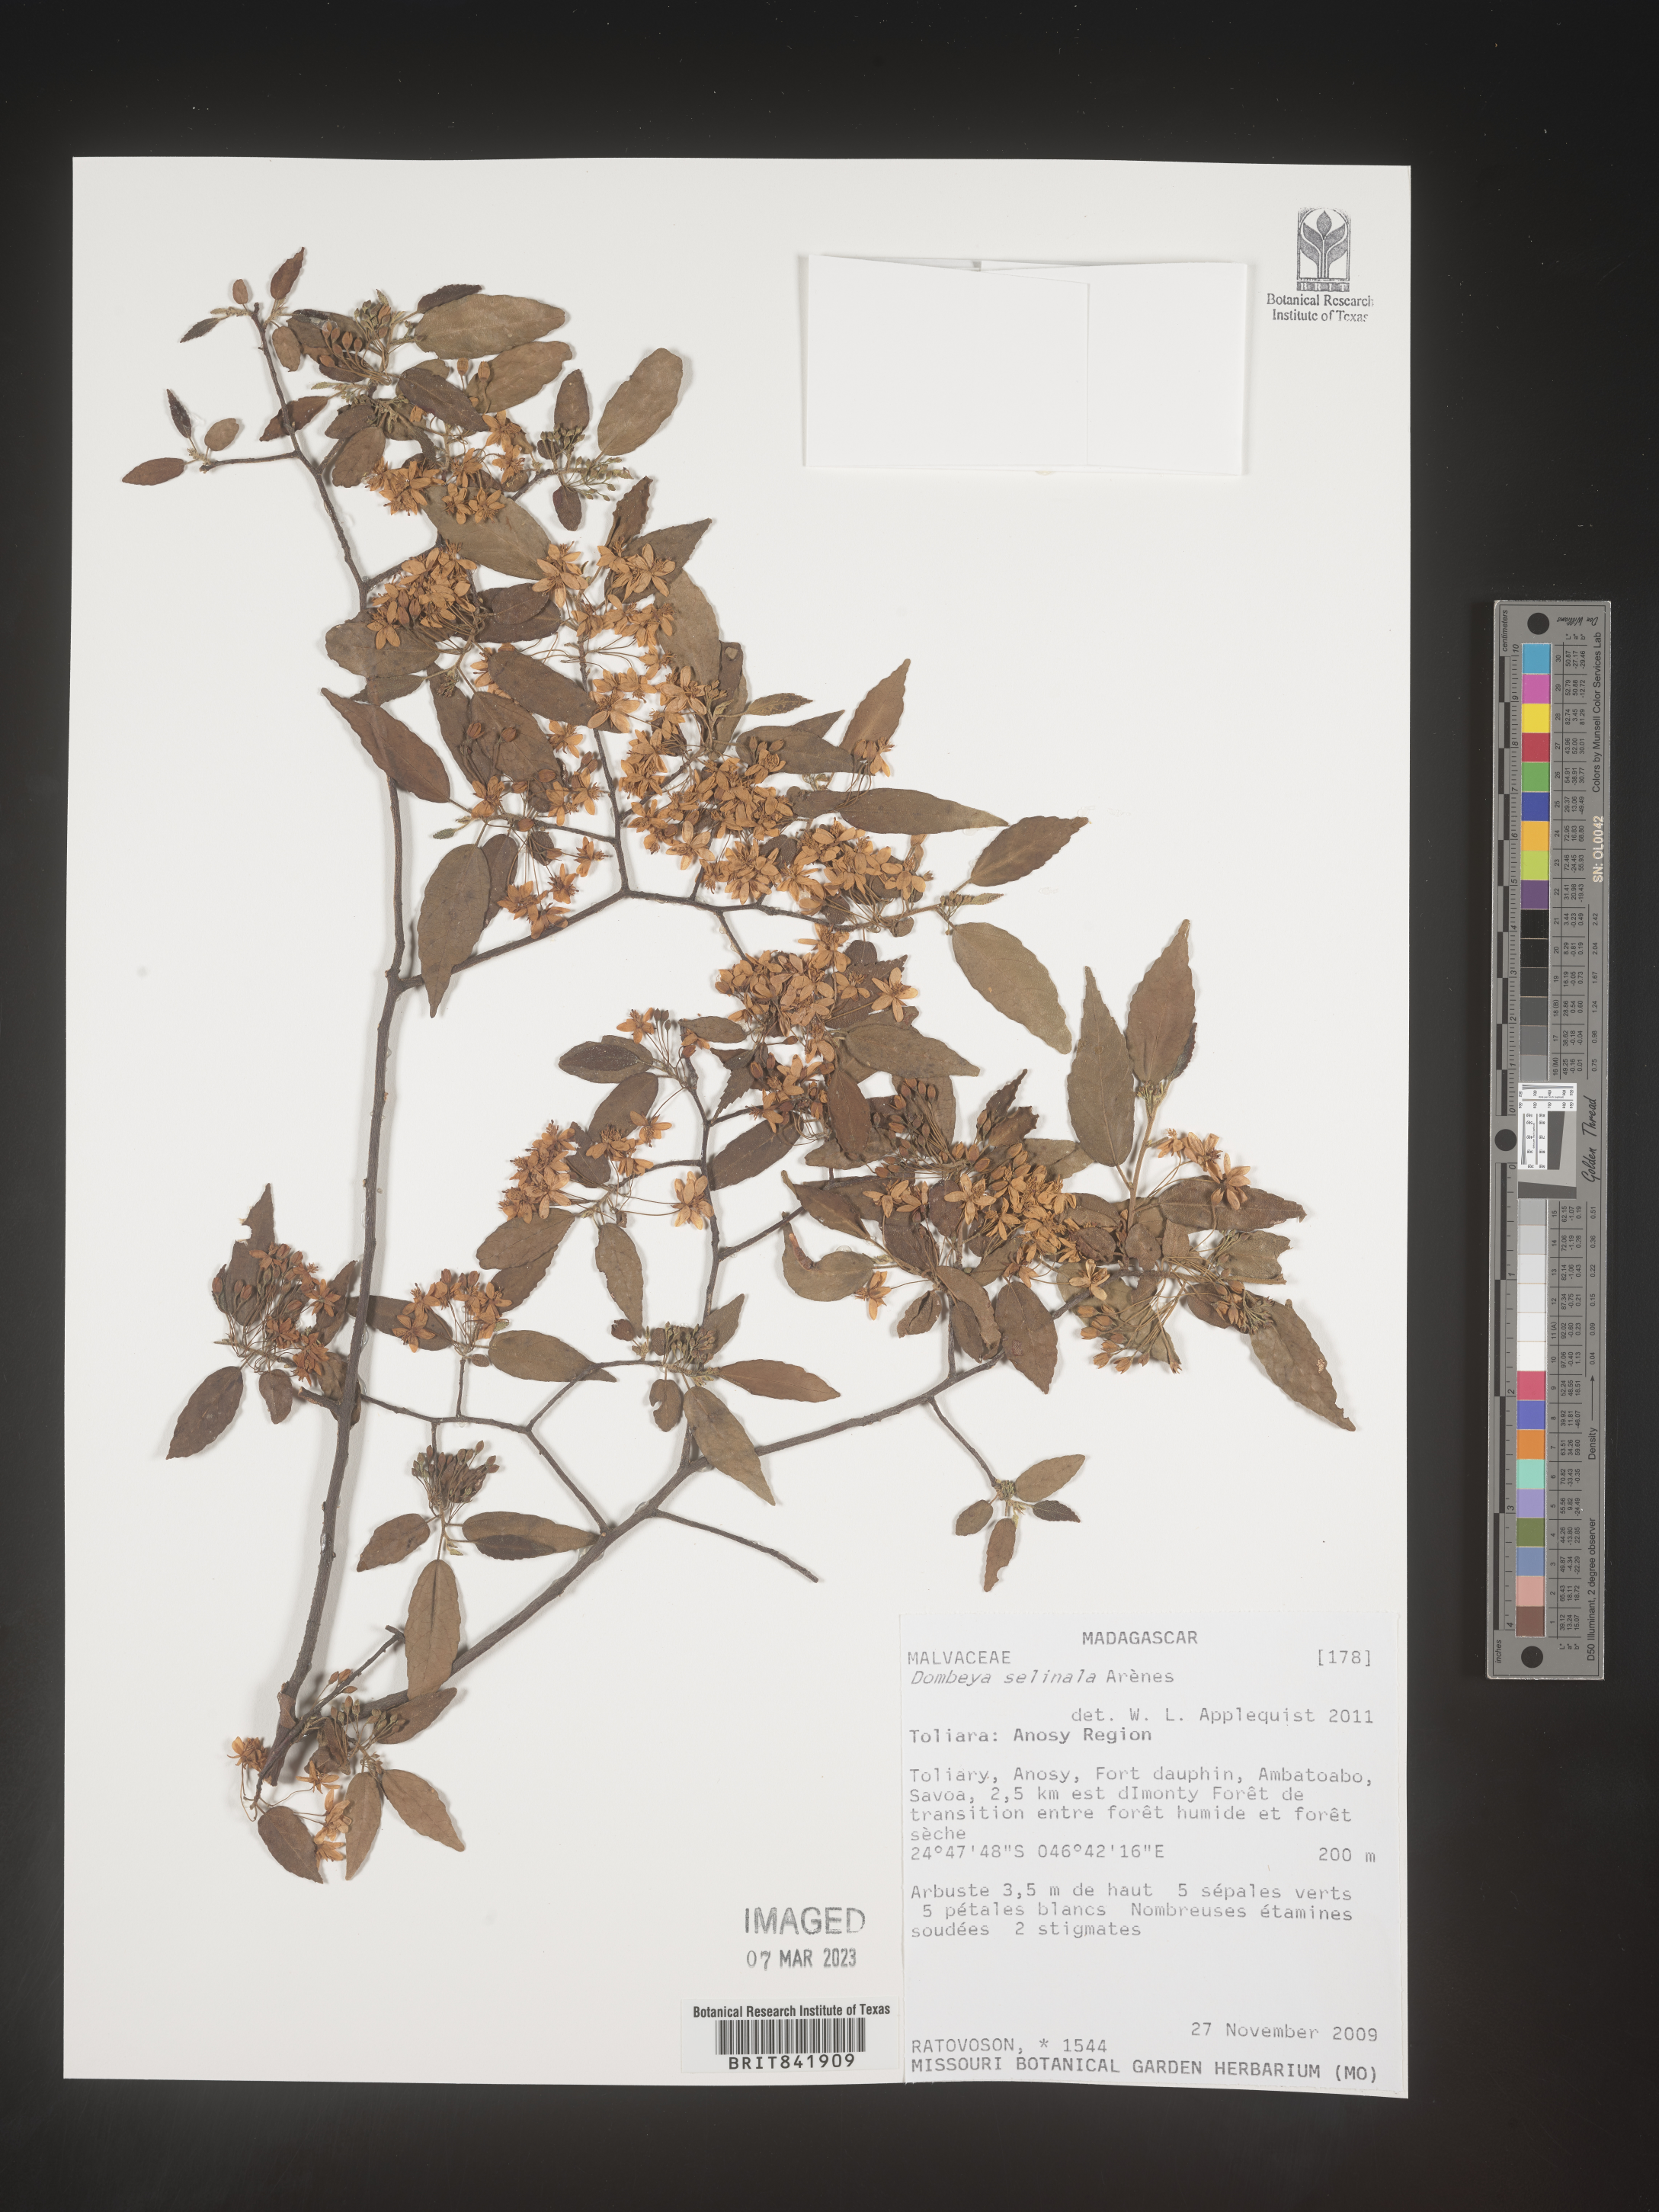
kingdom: Plantae
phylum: Tracheophyta
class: Magnoliopsida
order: Malvales
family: Malvaceae
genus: Dombeya
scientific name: Dombeya selinala
